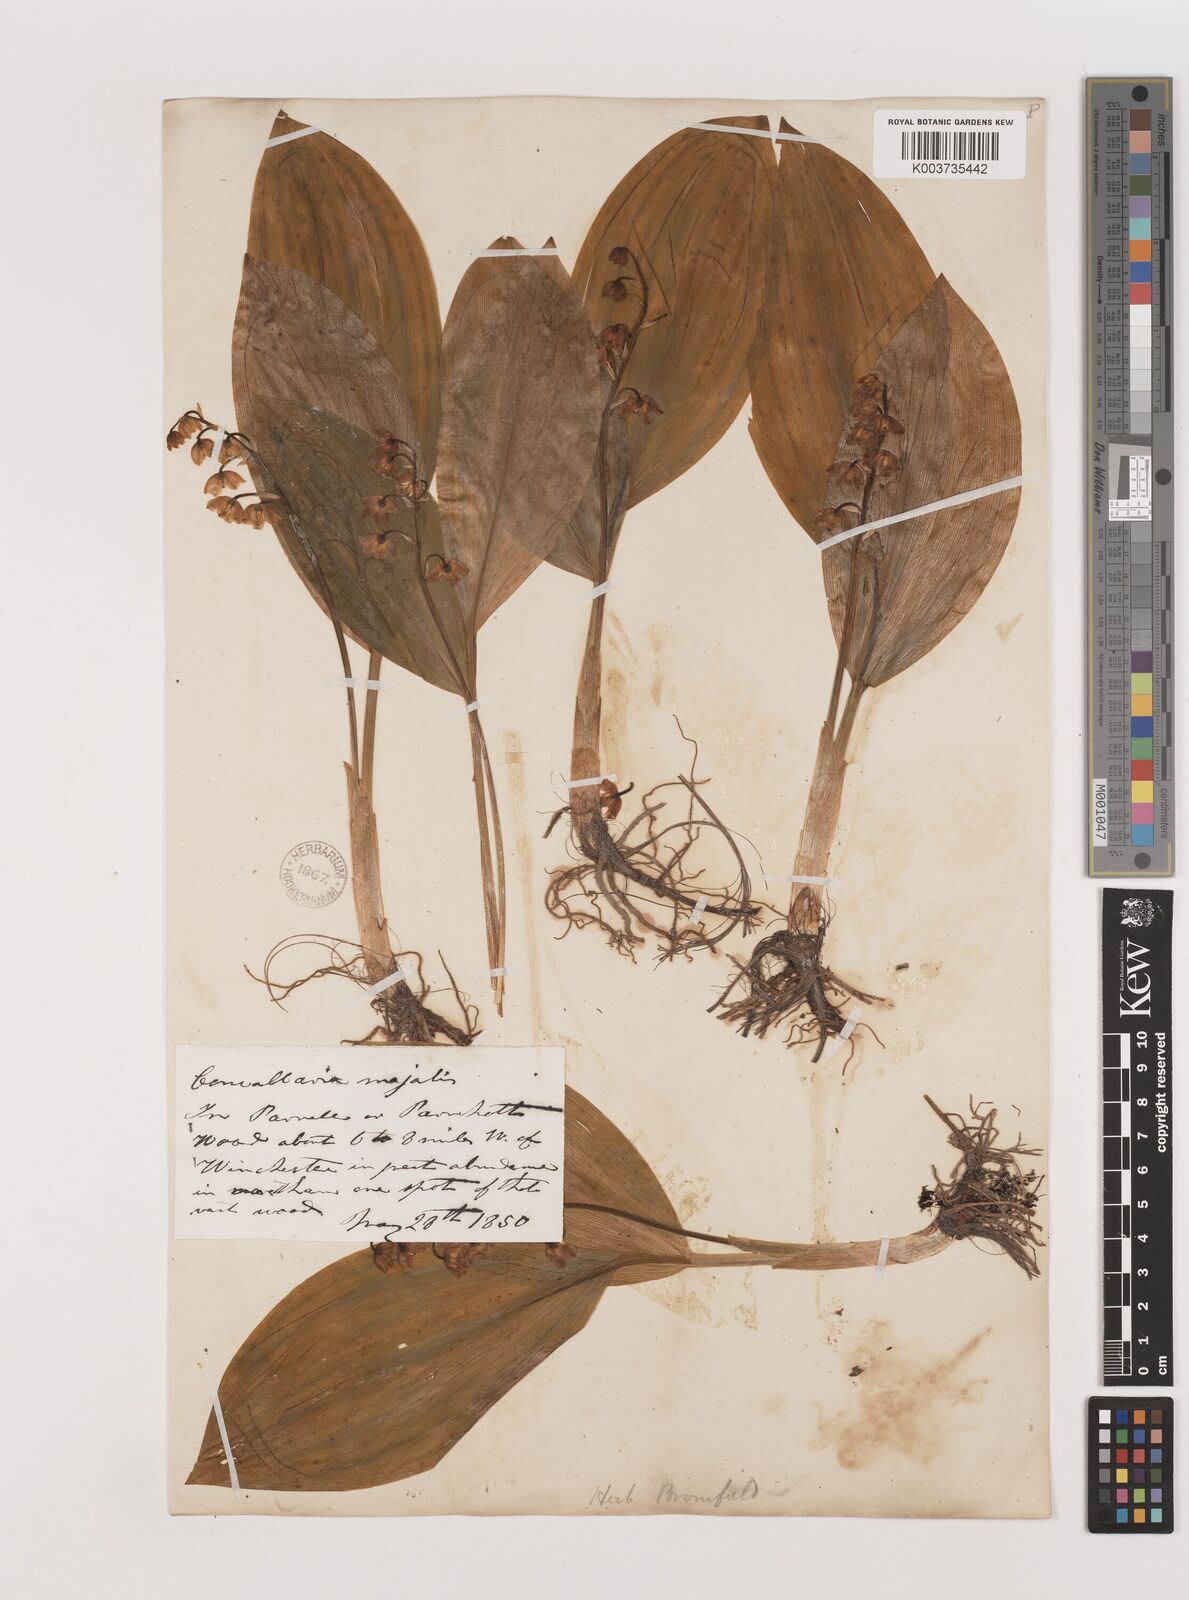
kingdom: Plantae
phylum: Tracheophyta
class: Liliopsida
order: Asparagales
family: Asparagaceae
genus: Convallaria
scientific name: Convallaria majalis
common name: Lily-of-the-valley
